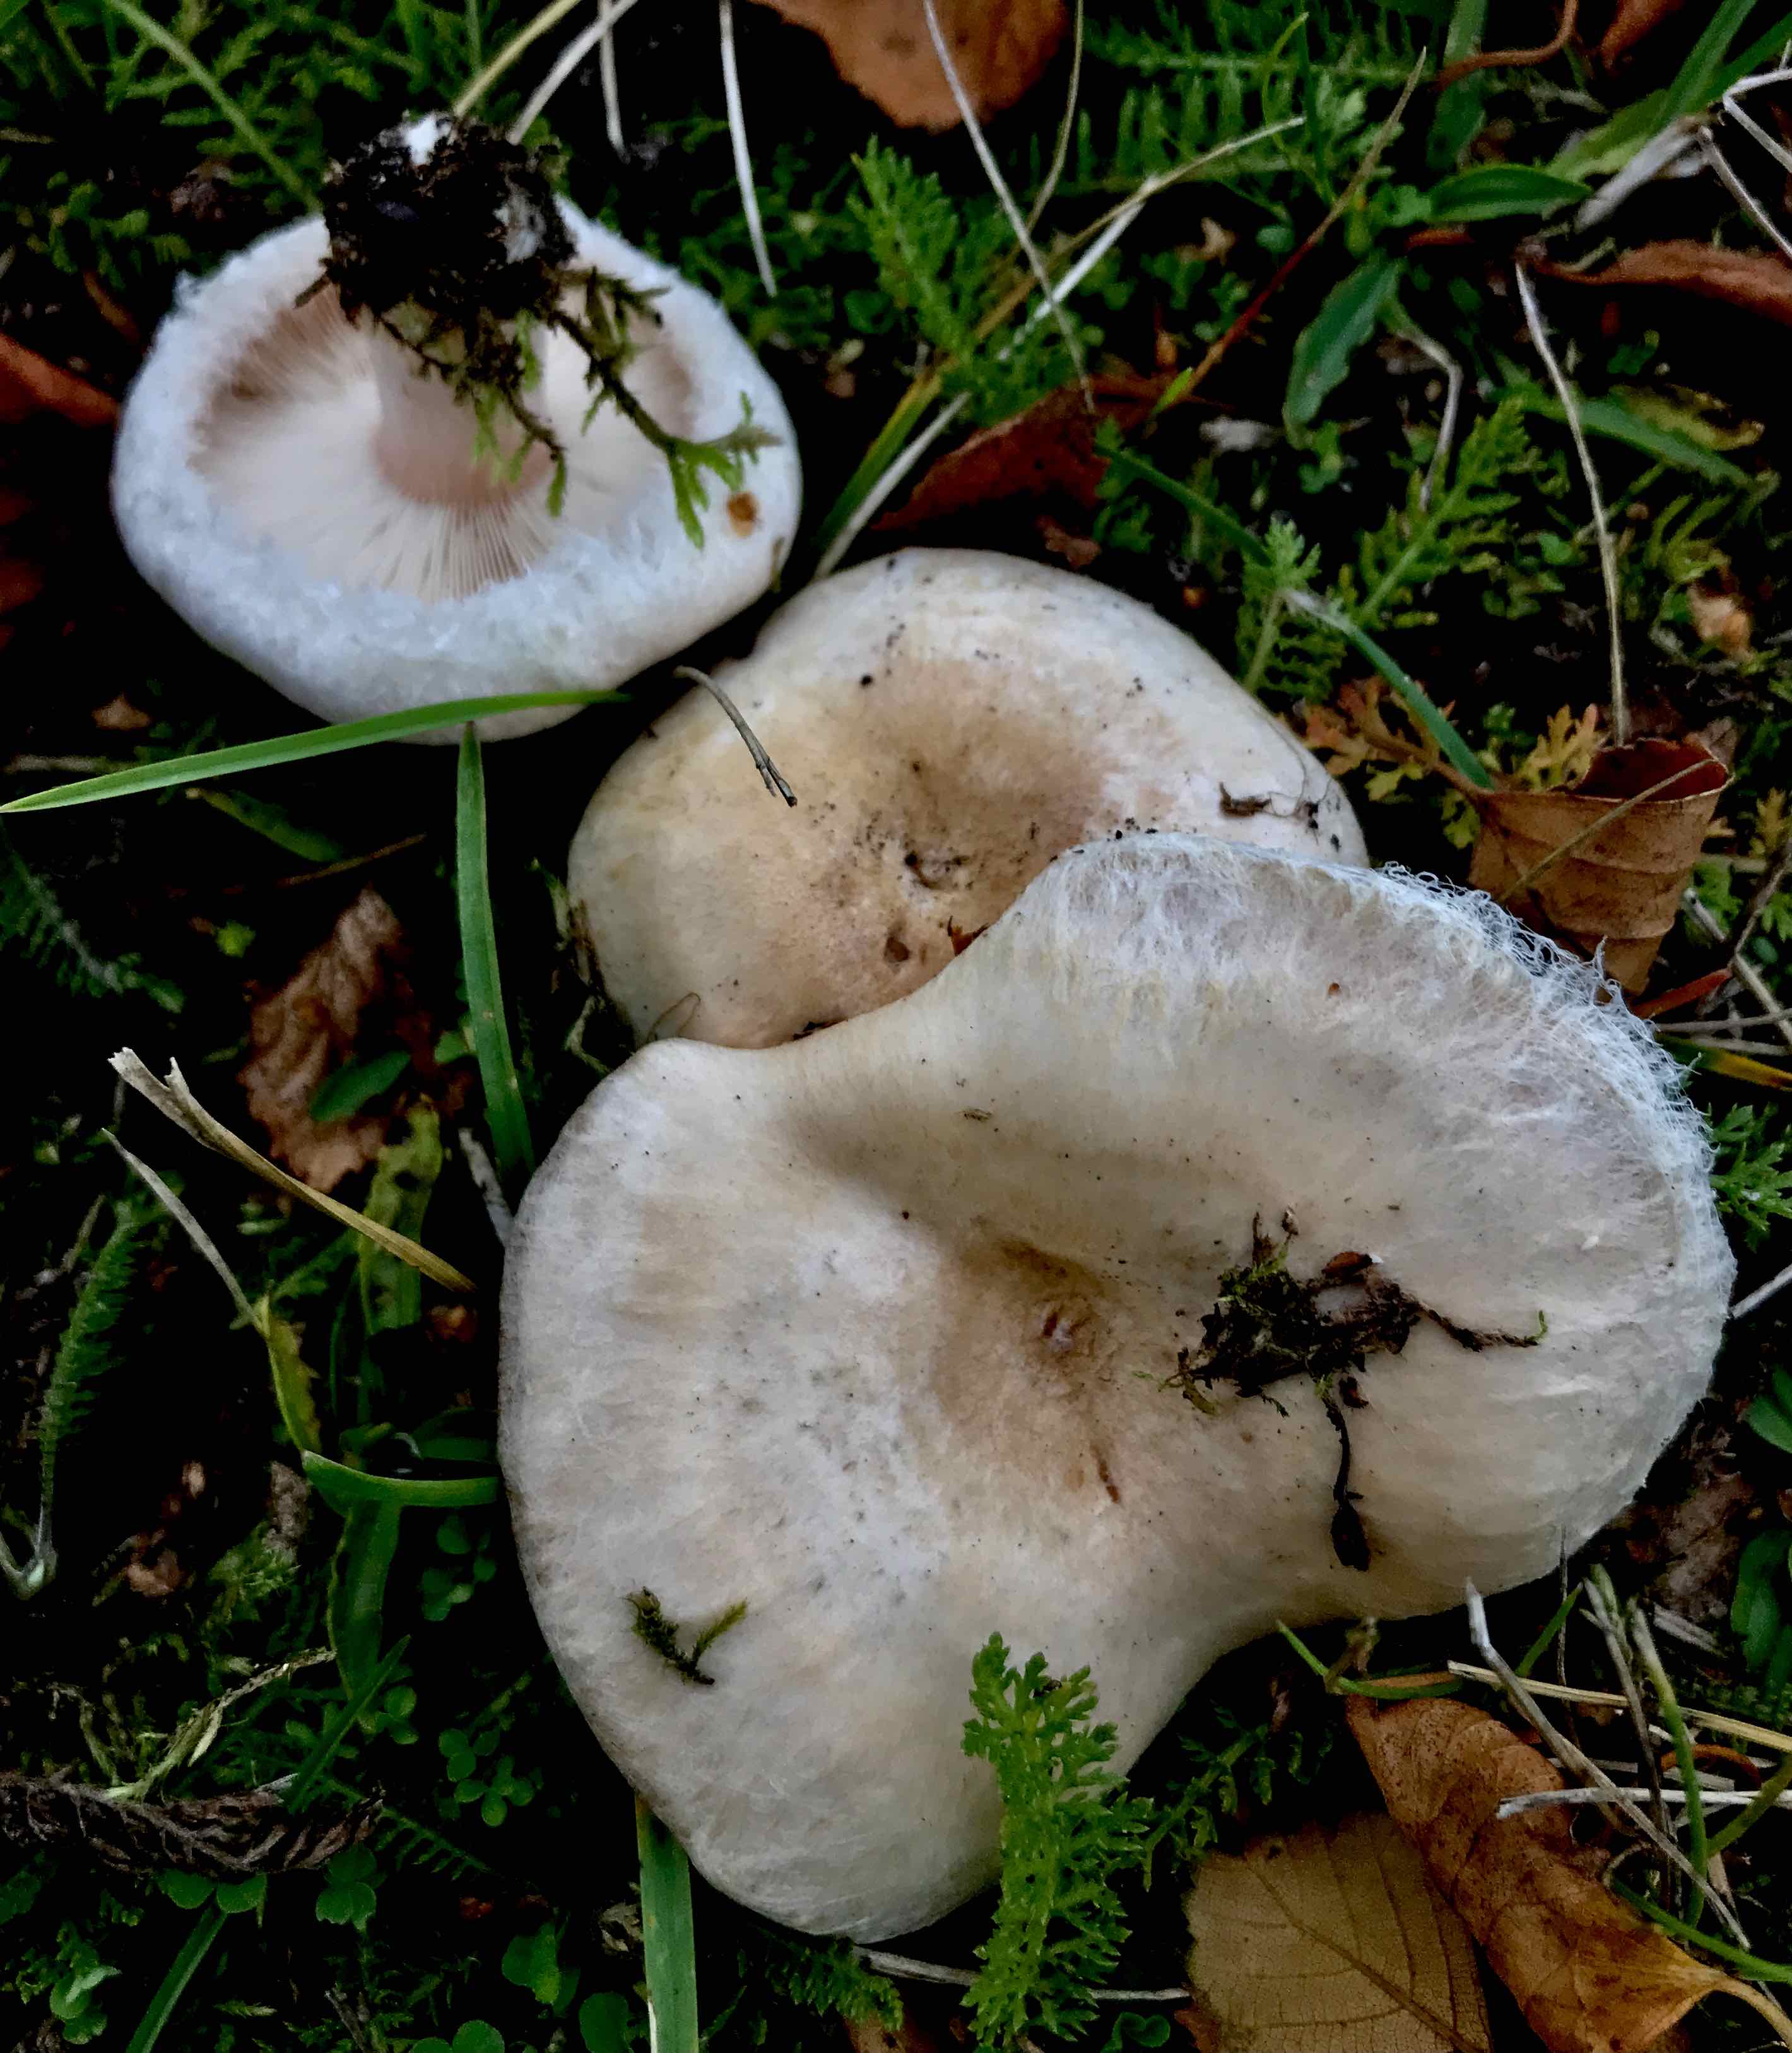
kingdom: Fungi
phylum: Basidiomycota
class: Agaricomycetes
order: Russulales
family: Russulaceae
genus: Lactarius
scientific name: Lactarius pubescens
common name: dunet mælkehat
